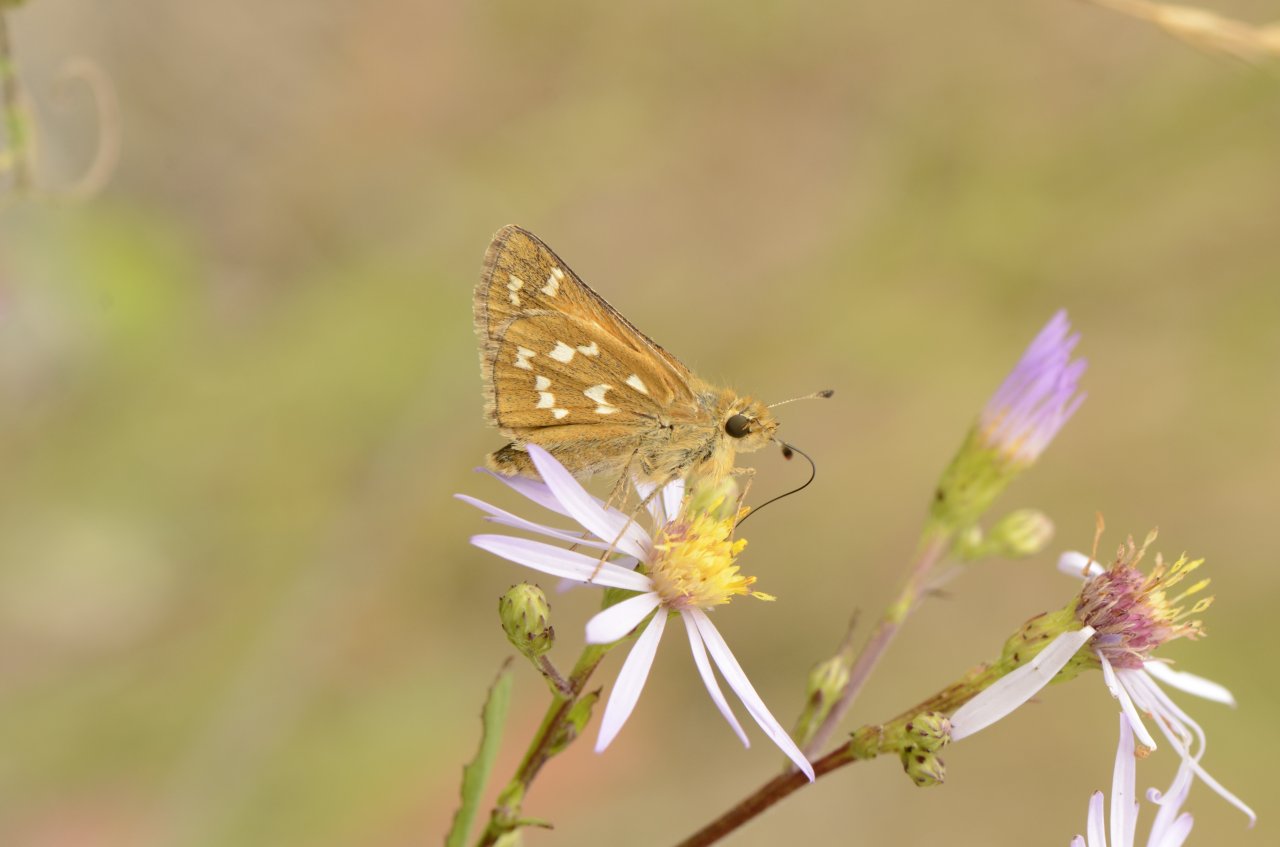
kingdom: Animalia
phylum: Arthropoda
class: Insecta
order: Lepidoptera
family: Hesperiidae
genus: Hesperia
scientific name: Hesperia comma
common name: Common Branded Skipper
